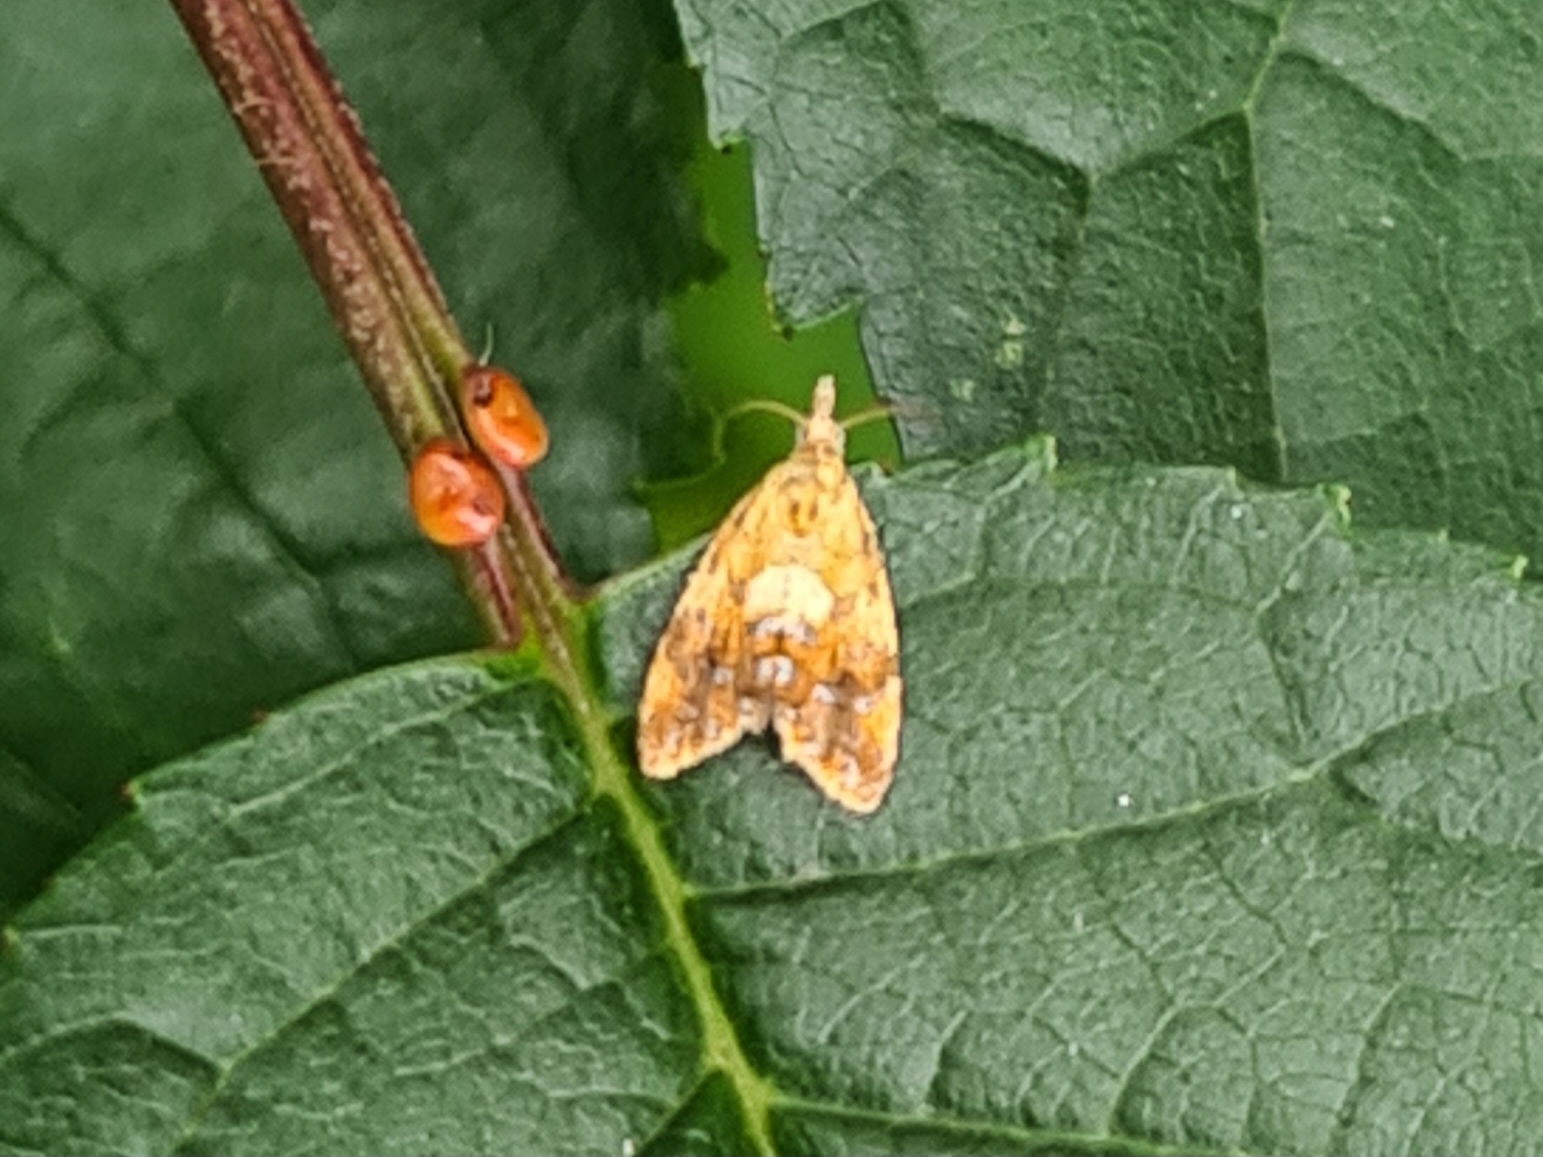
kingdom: Animalia
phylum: Arthropoda
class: Insecta
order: Lepidoptera
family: Tortricidae
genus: Pseudargyrotoza
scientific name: Pseudargyrotoza conwagana
